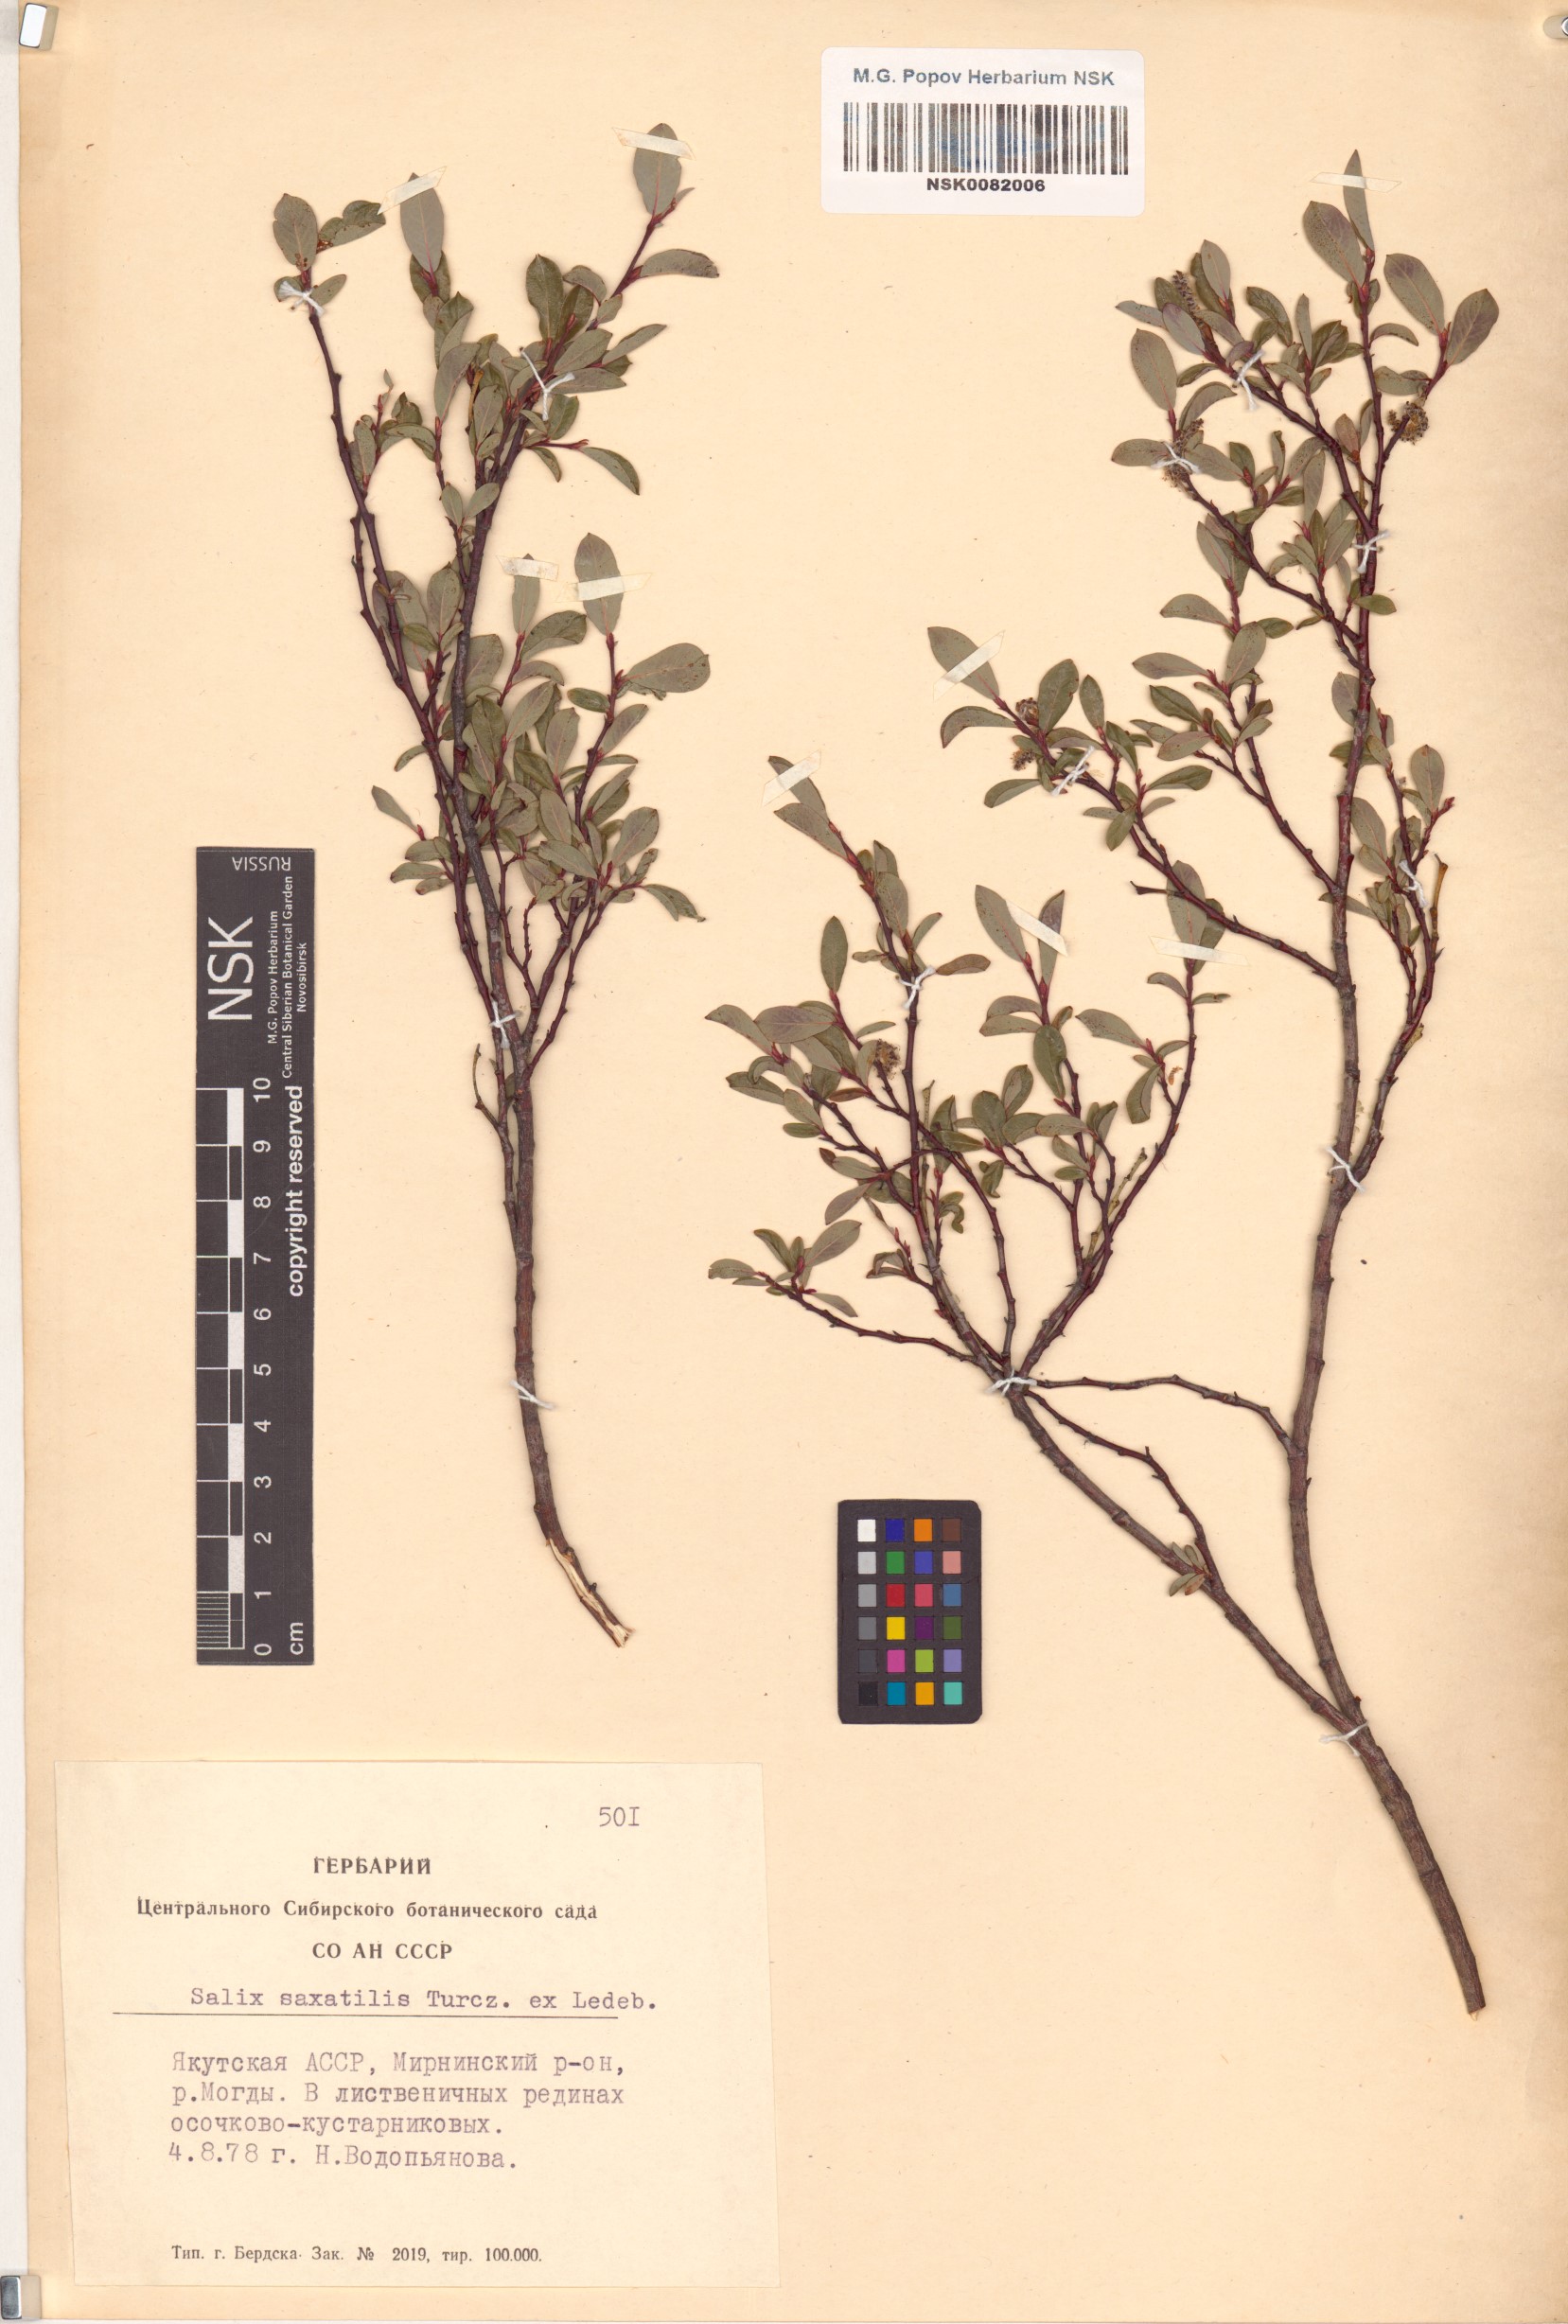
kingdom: Plantae
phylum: Tracheophyta
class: Magnoliopsida
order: Malpighiales
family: Salicaceae
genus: Salix
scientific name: Salix saxatilis
